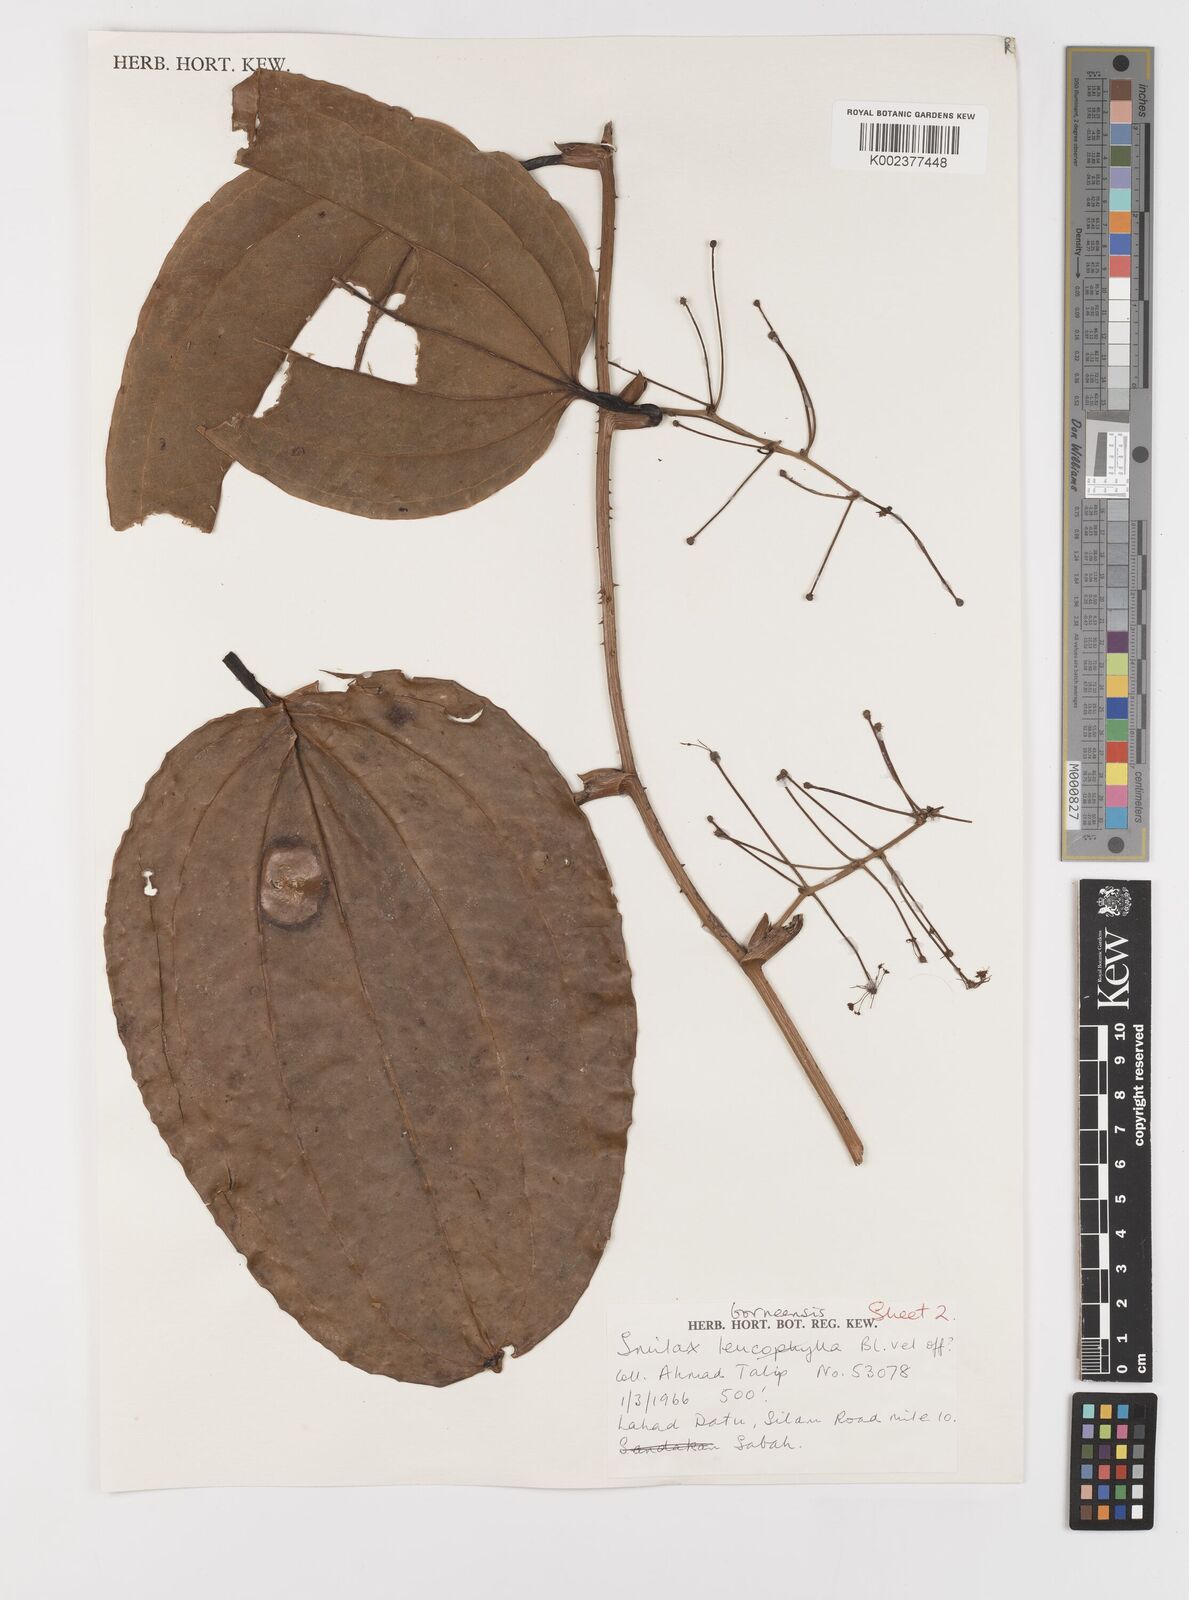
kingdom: Plantae
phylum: Tracheophyta
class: Liliopsida
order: Liliales
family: Smilacaceae
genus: Smilax
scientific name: Smilax borneensis
